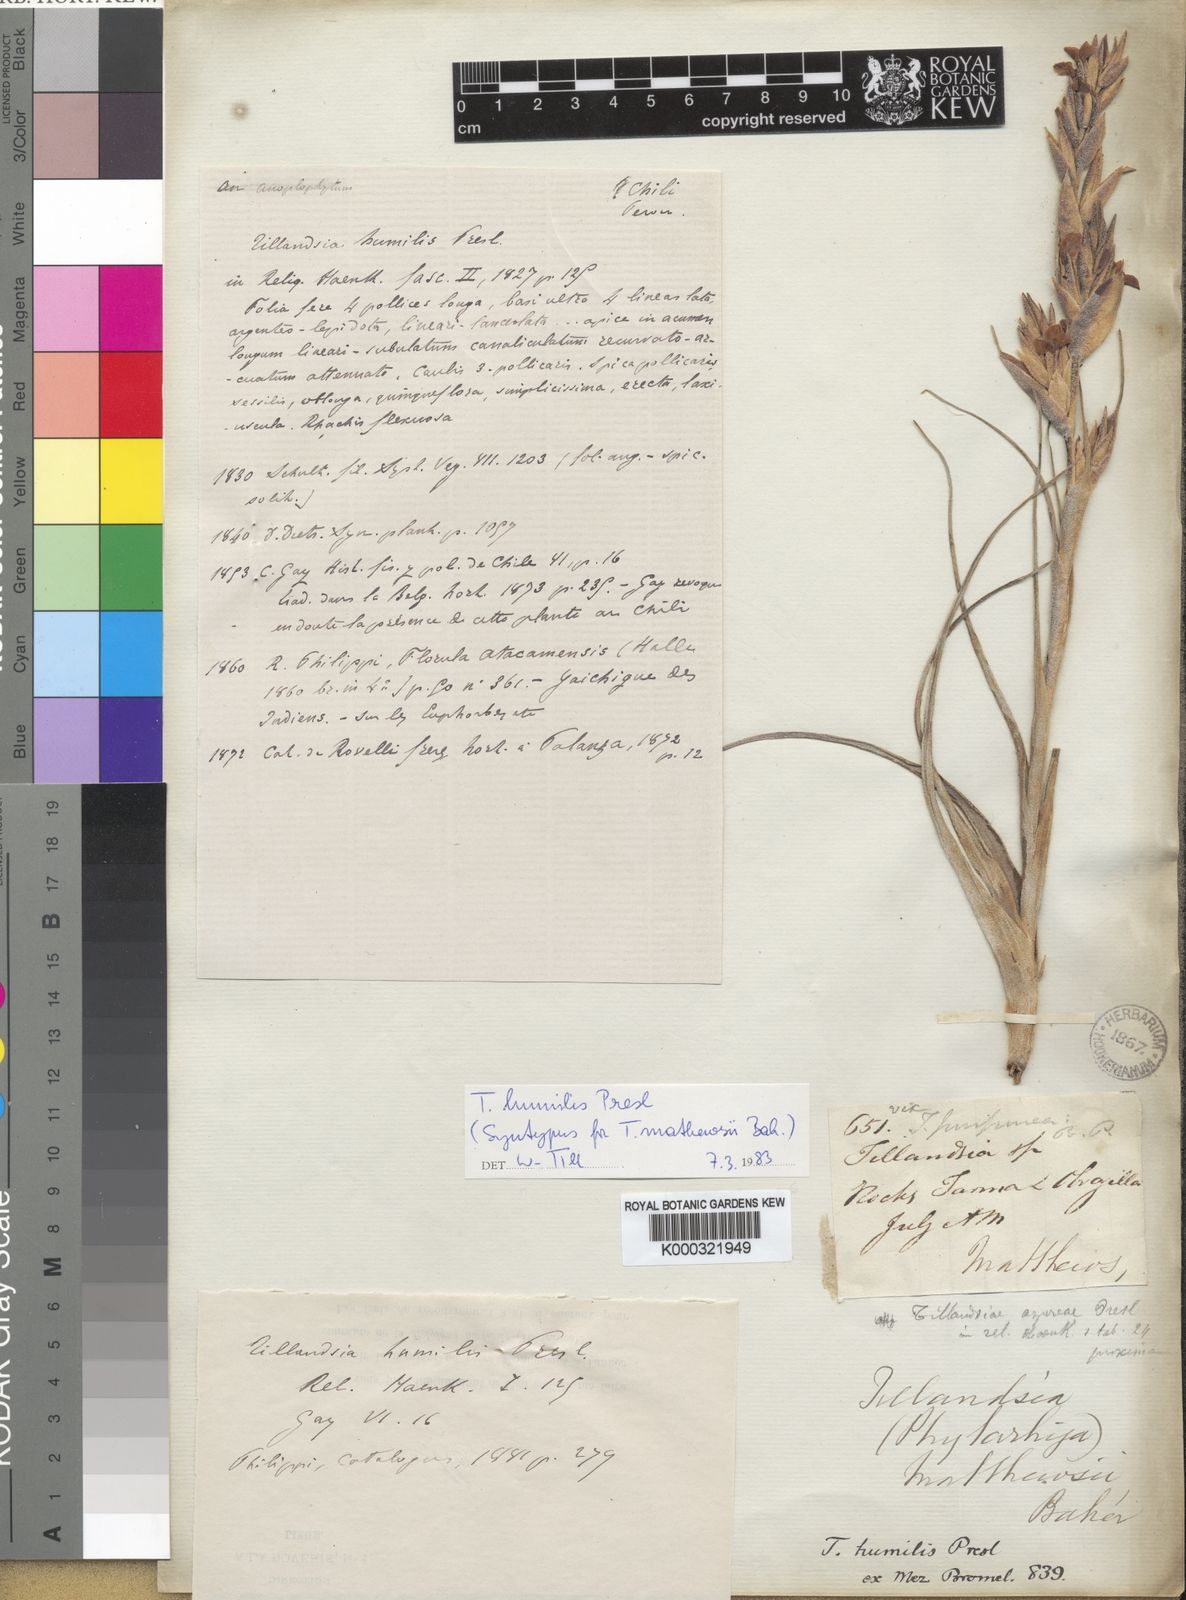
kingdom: Plantae
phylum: Tracheophyta
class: Liliopsida
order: Poales
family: Bromeliaceae
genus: Tillandsia
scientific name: Tillandsia humilis
